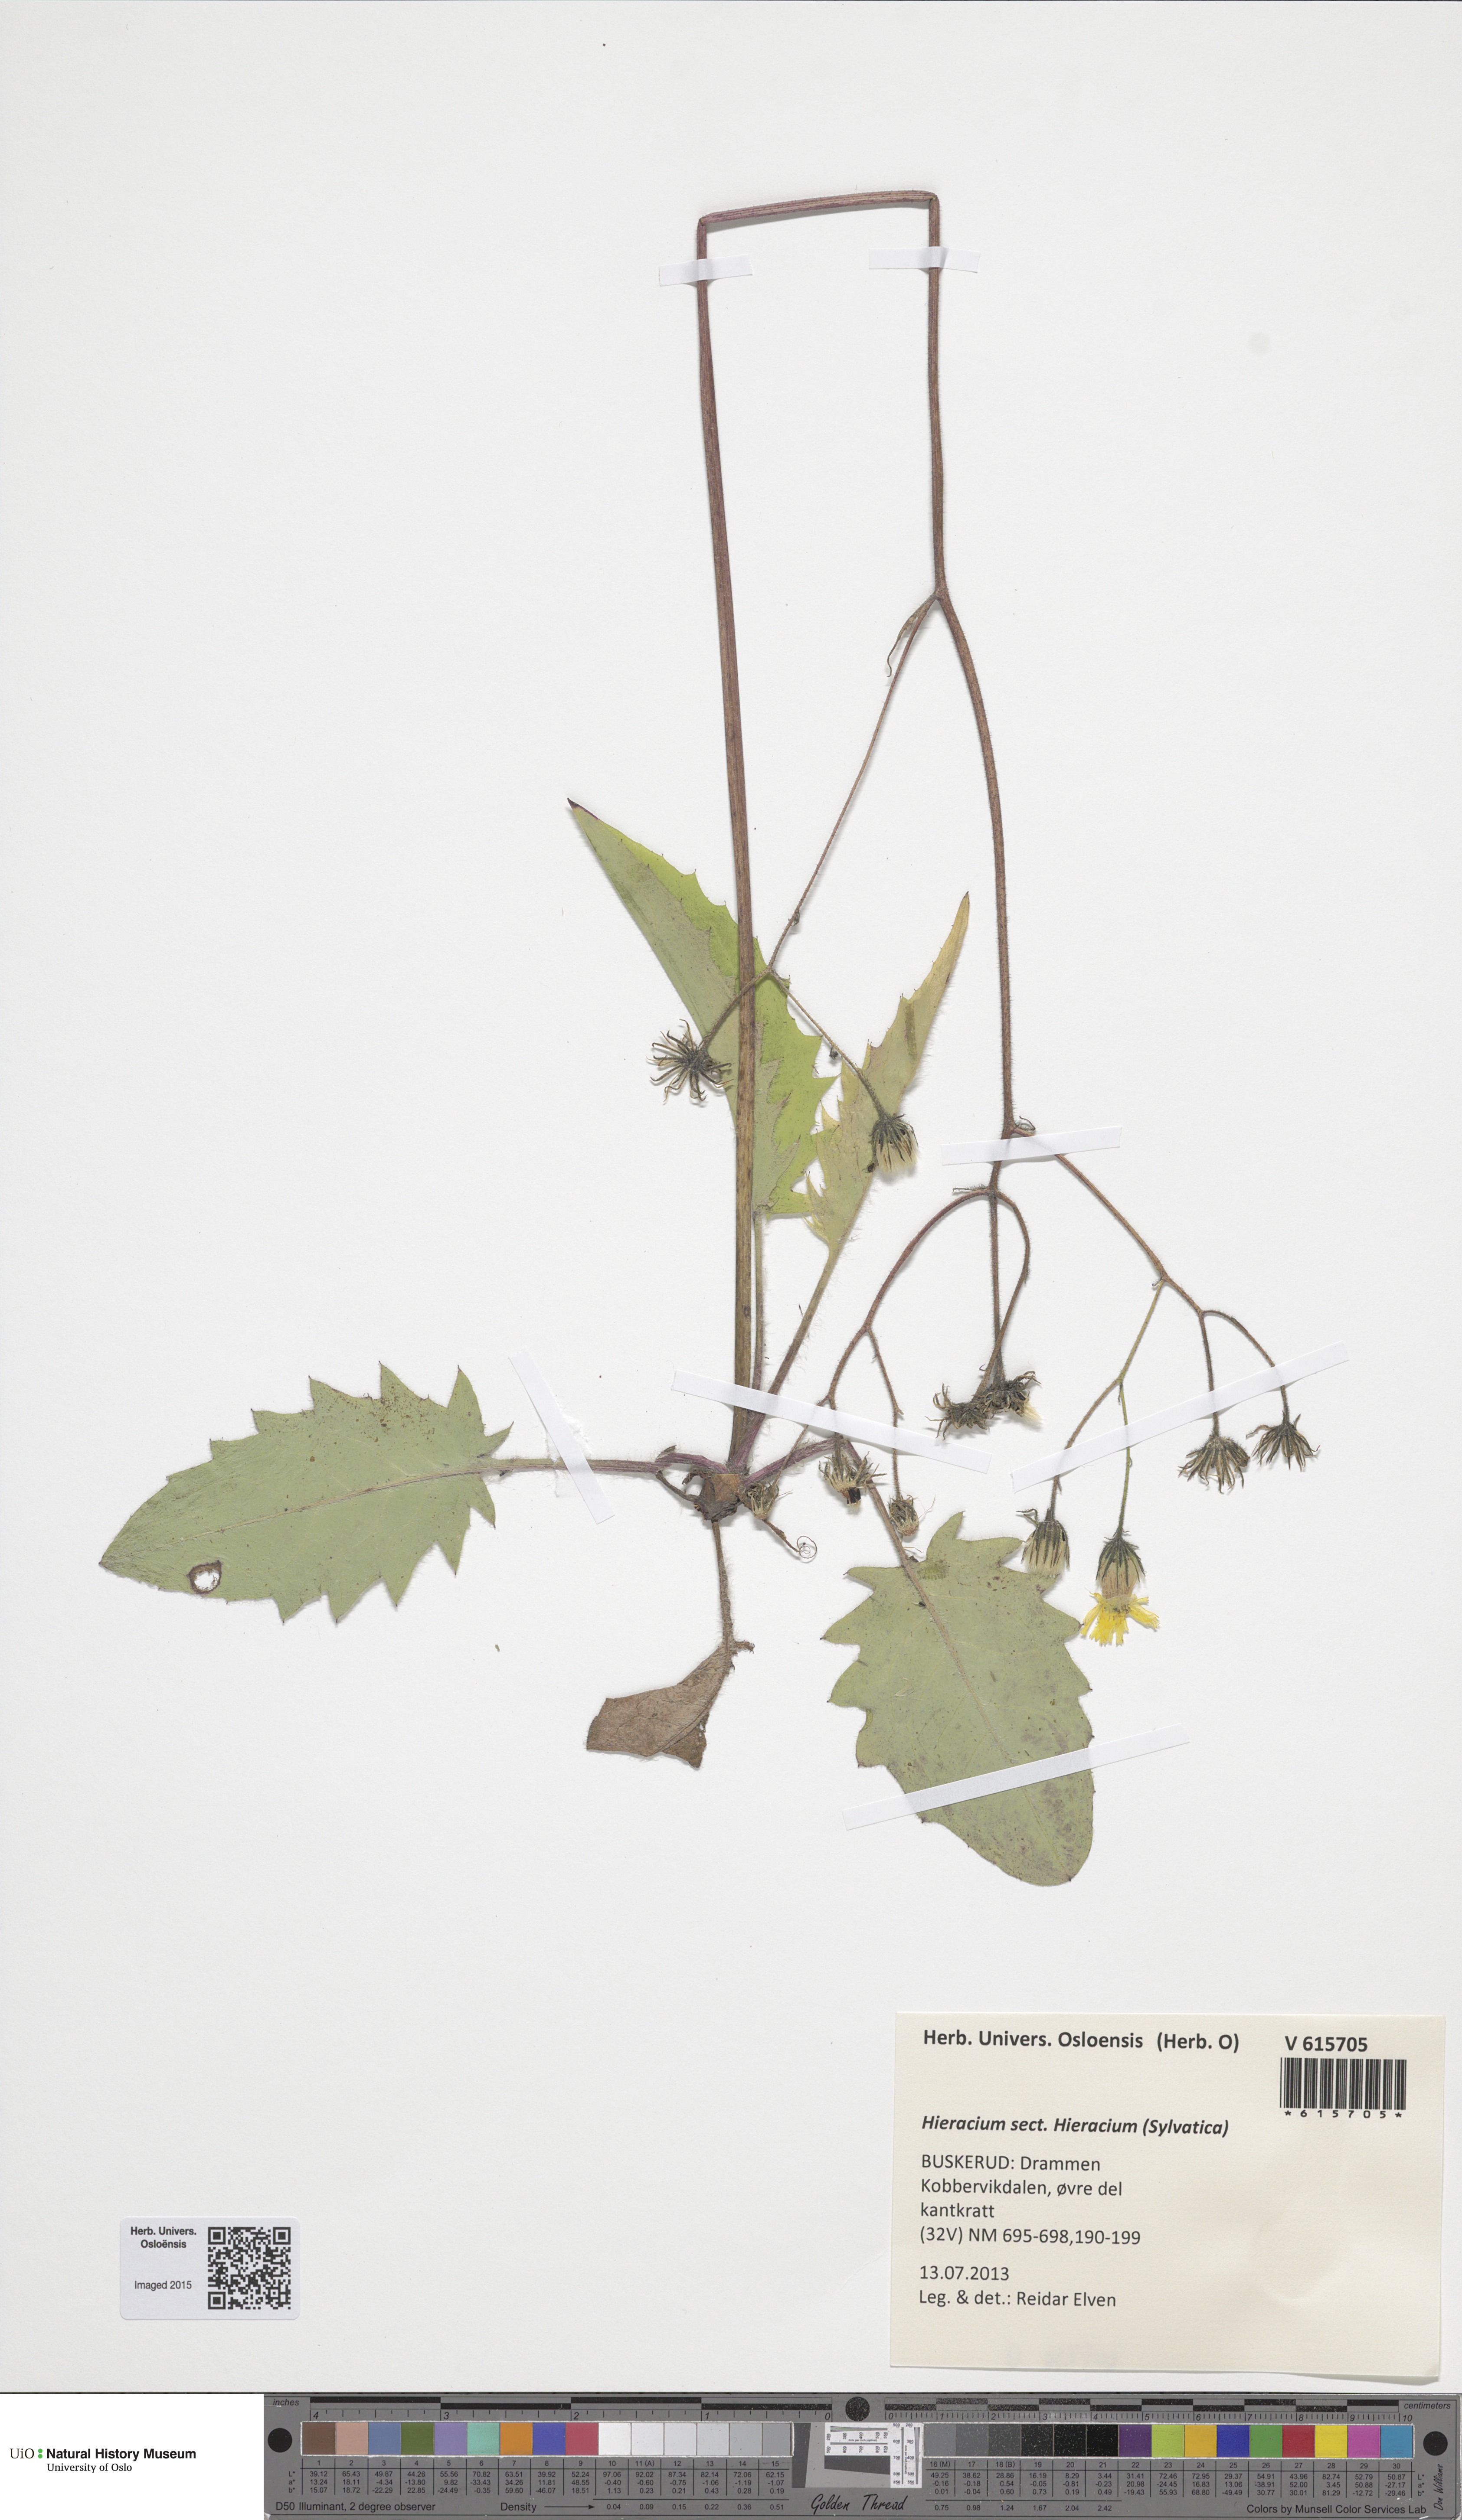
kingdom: Plantae
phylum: Tracheophyta
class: Magnoliopsida
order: Asterales
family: Asteraceae
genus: Hieracium
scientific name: Hieracium
